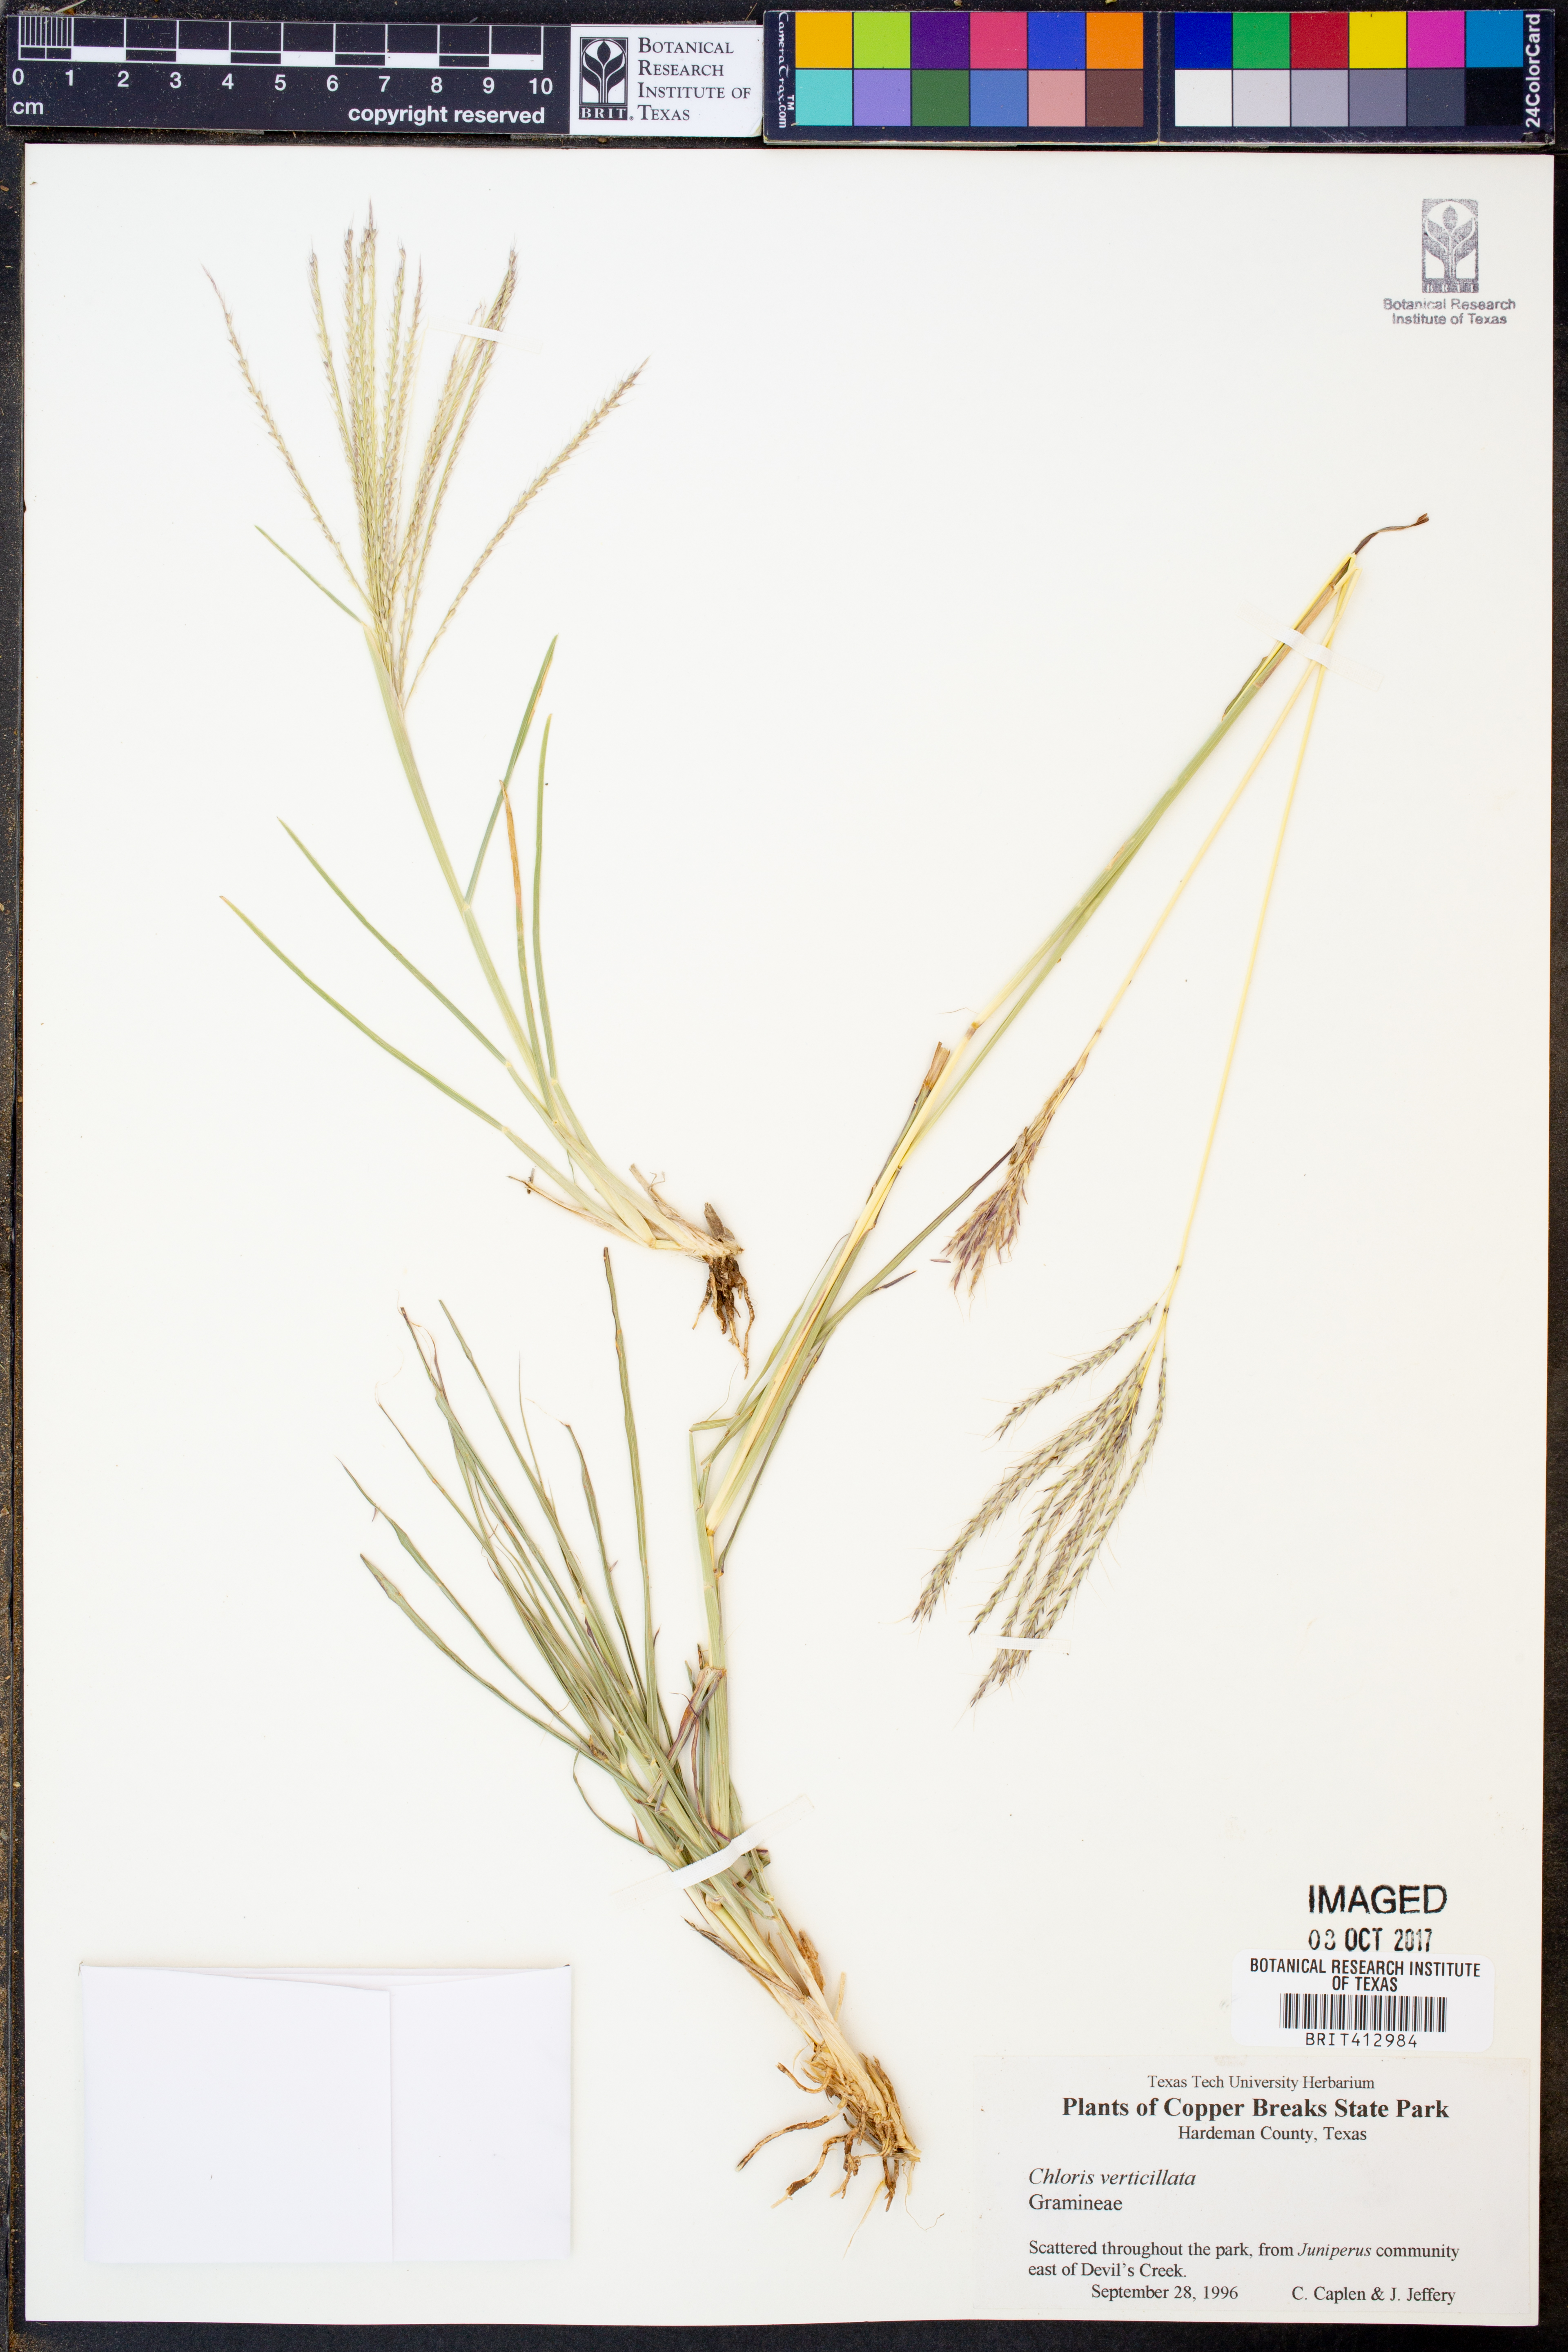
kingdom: Plantae
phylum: Tracheophyta
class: Liliopsida
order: Poales
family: Poaceae
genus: Chloris
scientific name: Chloris verticillata
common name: Tumble windmill grass
